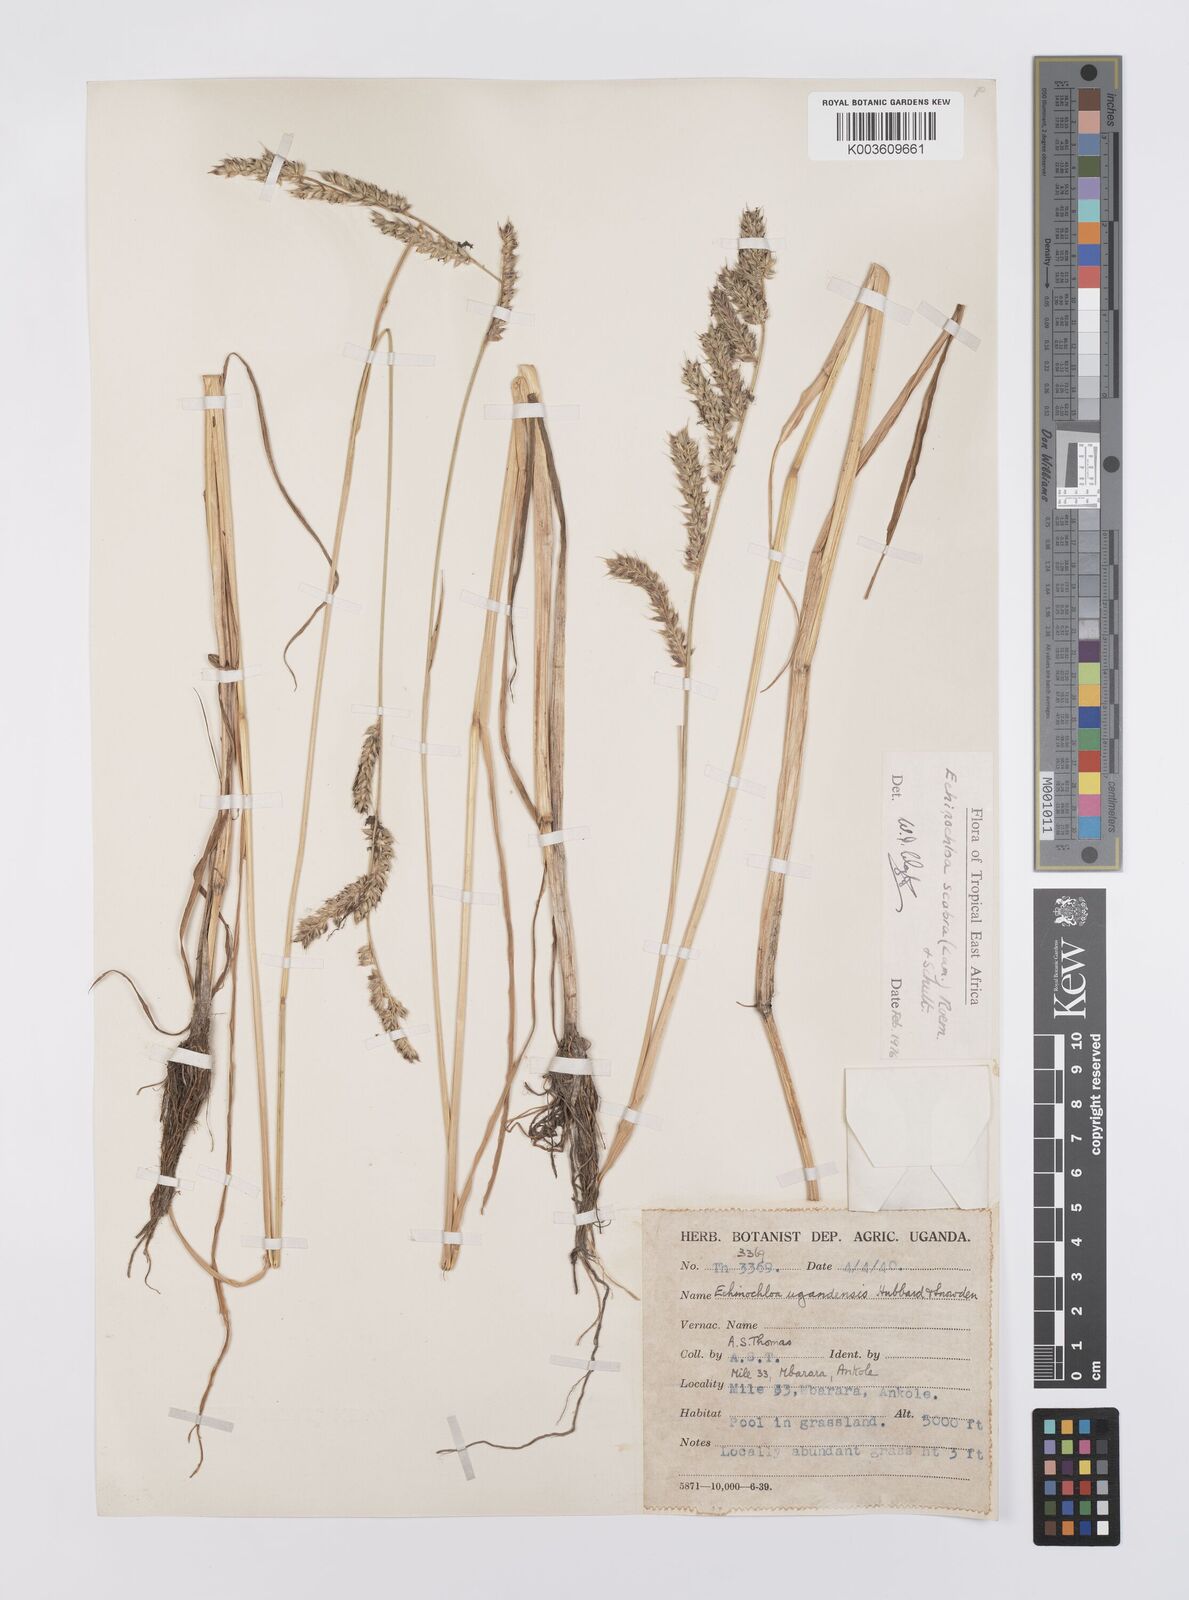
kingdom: Plantae
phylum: Tracheophyta
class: Liliopsida
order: Poales
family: Poaceae
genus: Echinochloa
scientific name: Echinochloa stagnina
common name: Burgu grass
